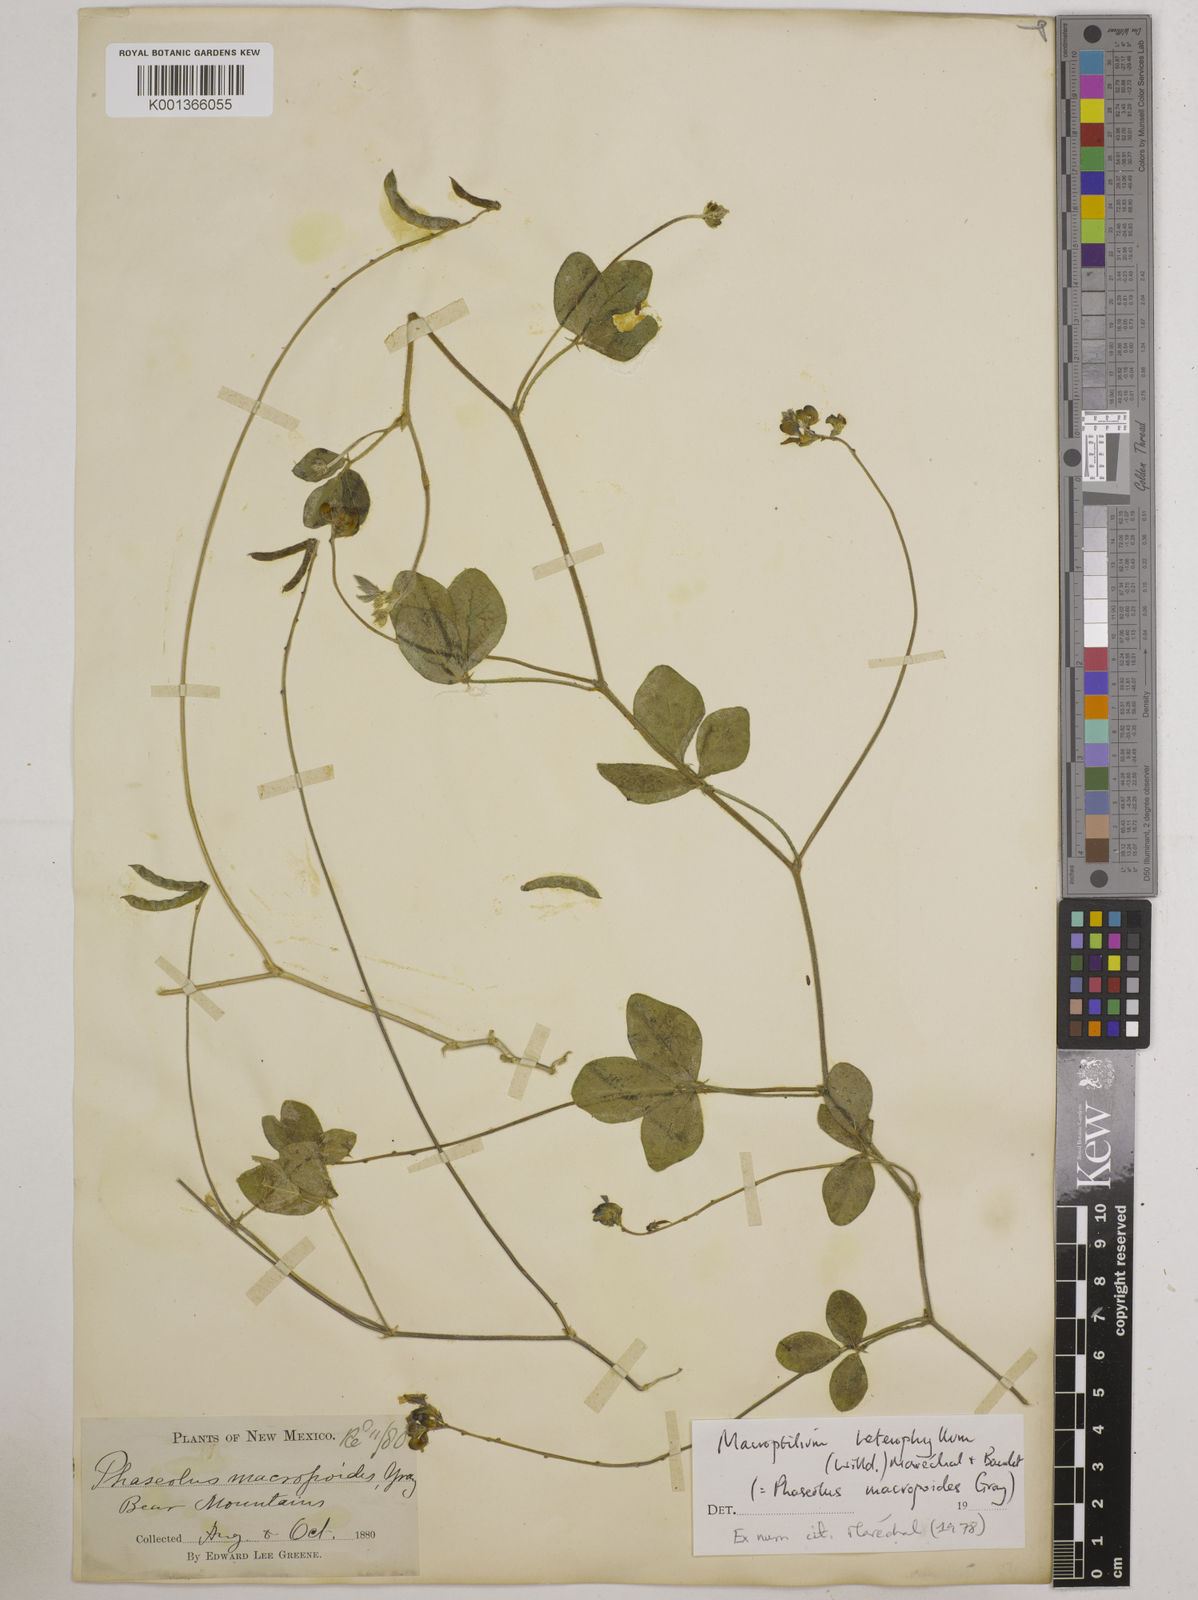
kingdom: Plantae
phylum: Tracheophyta
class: Magnoliopsida
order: Fabales
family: Fabaceae
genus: Macroptilium
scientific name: Macroptilium gibbosifolium
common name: Variableleaf bushbean
